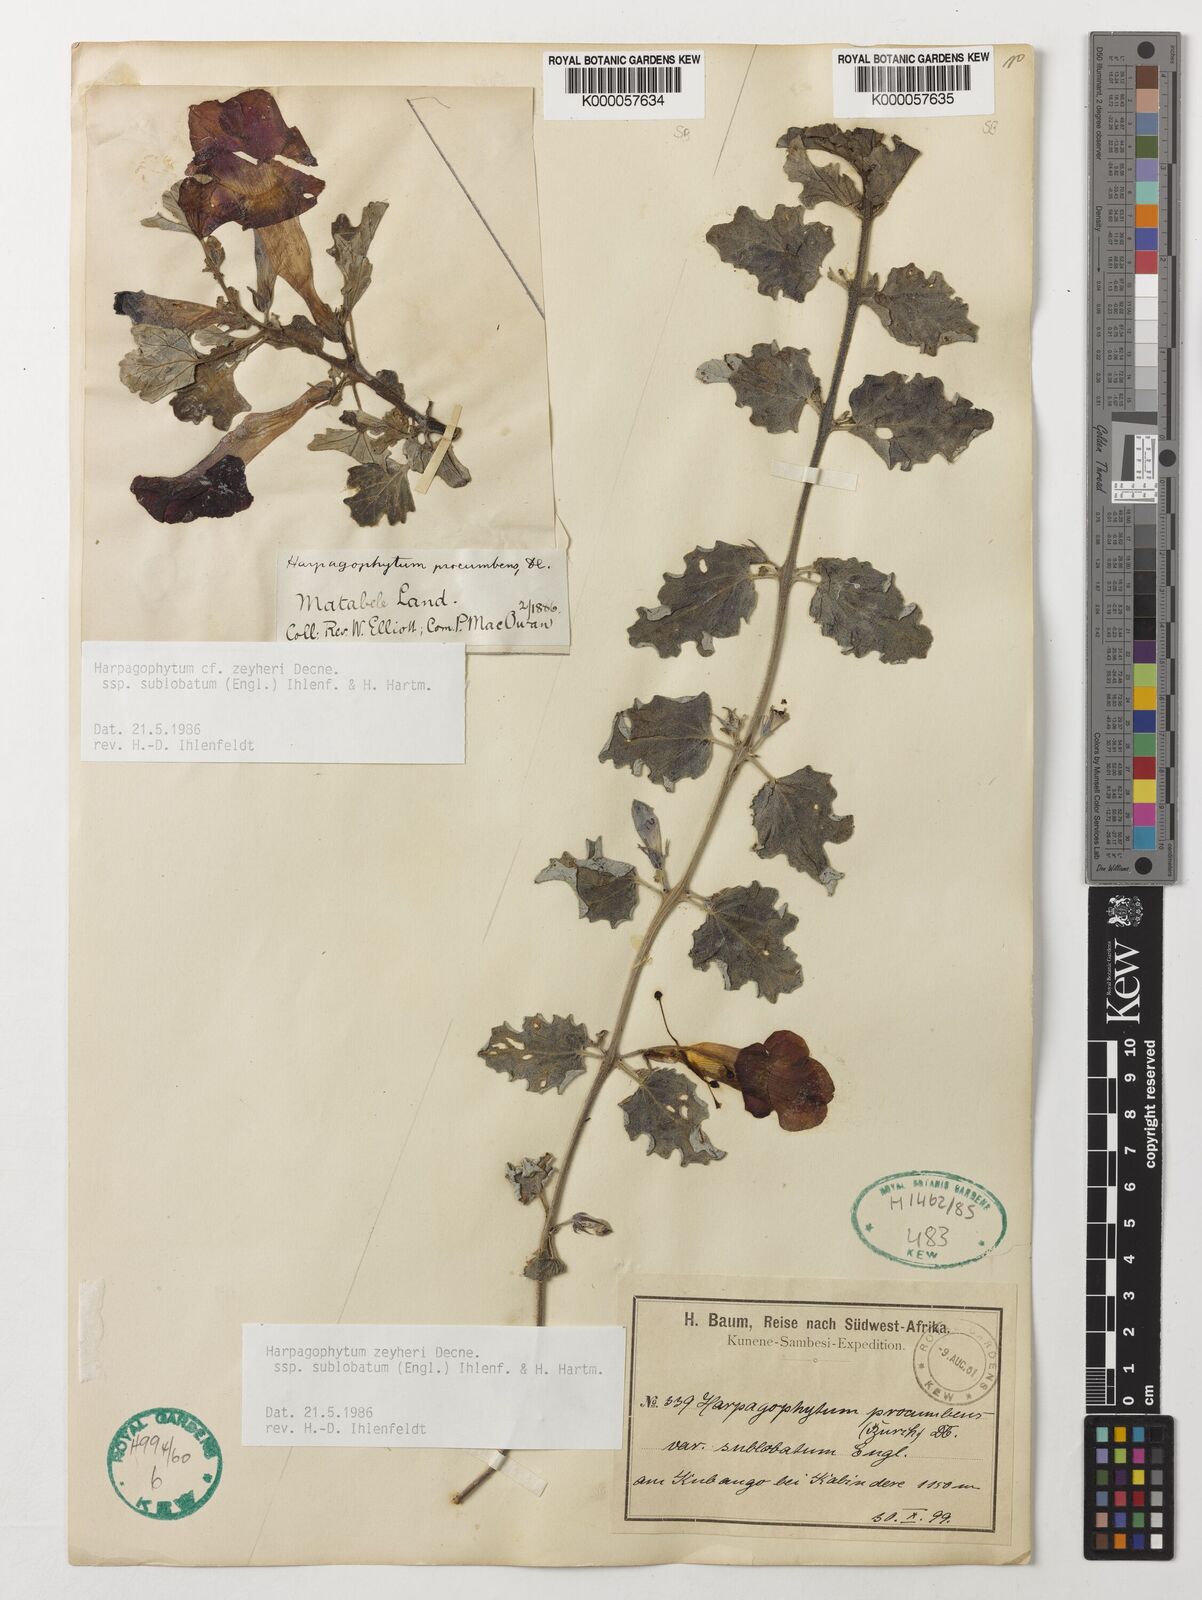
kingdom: Plantae
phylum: Tracheophyta
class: Magnoliopsida
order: Lamiales
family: Pedaliaceae
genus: Harpagophytum
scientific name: Harpagophytum zeyheri
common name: Grappleplant
